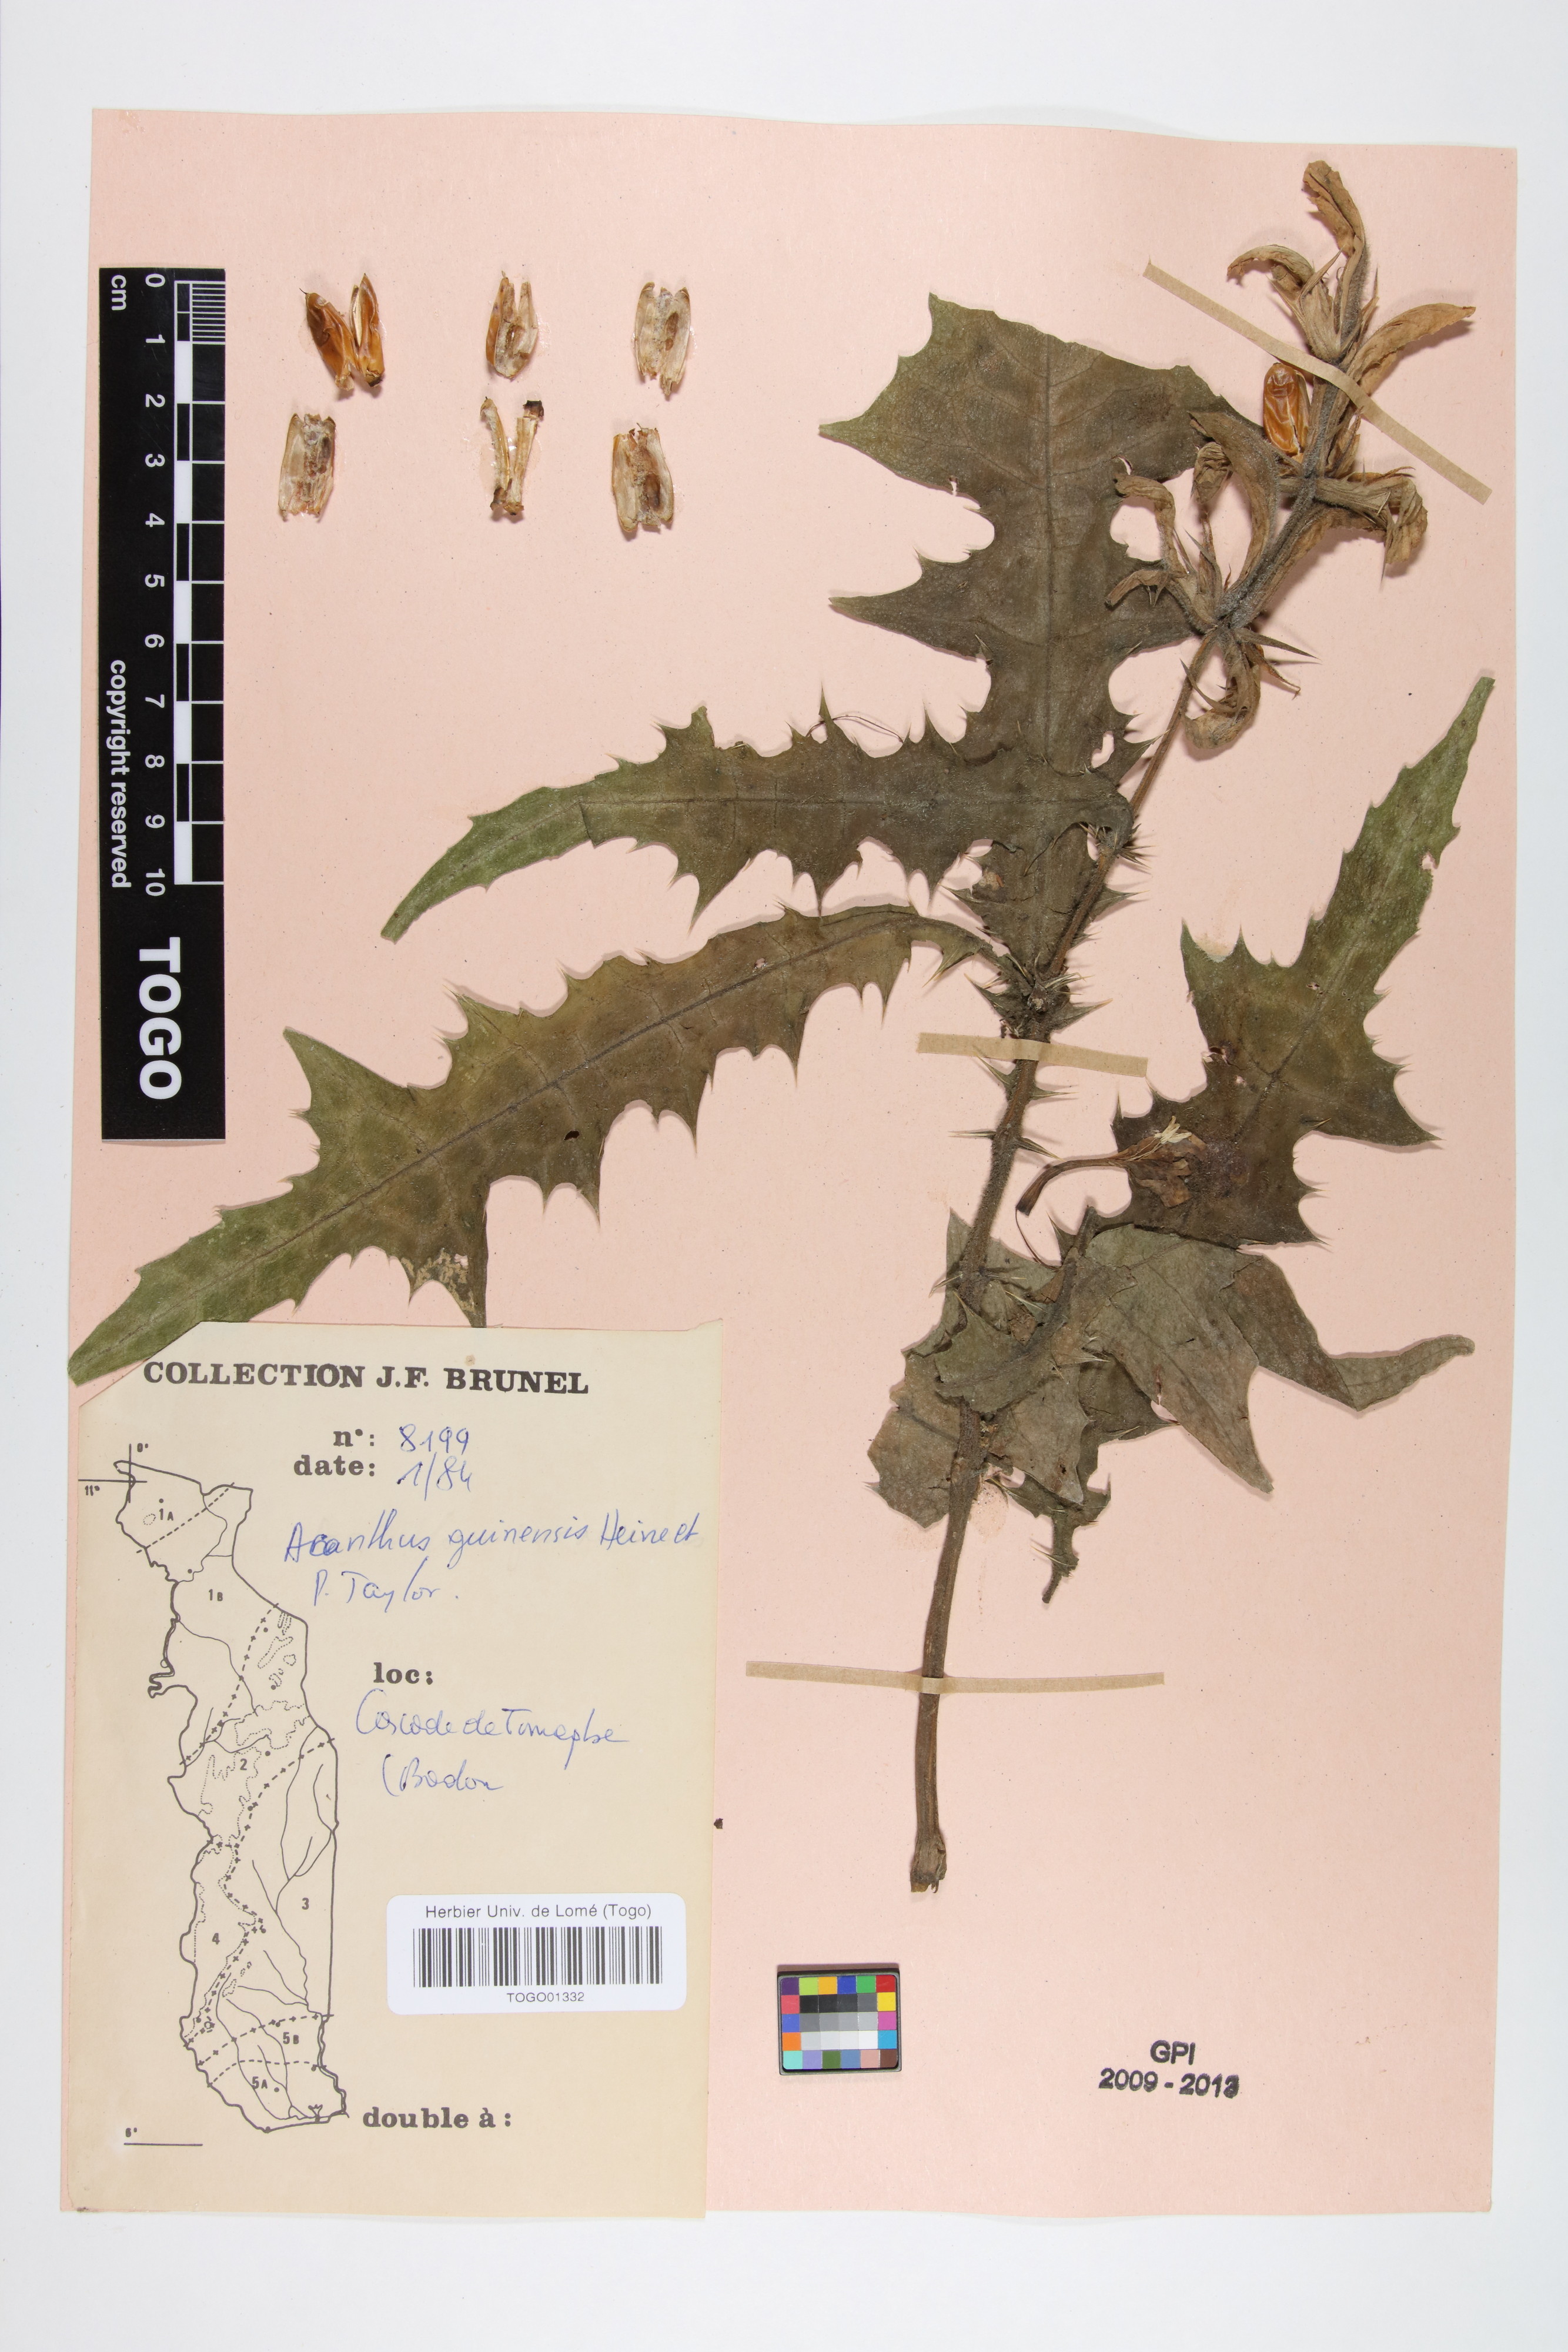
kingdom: Plantae
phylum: Tracheophyta
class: Magnoliopsida
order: Lamiales
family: Acanthaceae
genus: Acanthus
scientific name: Acanthus guineensis
